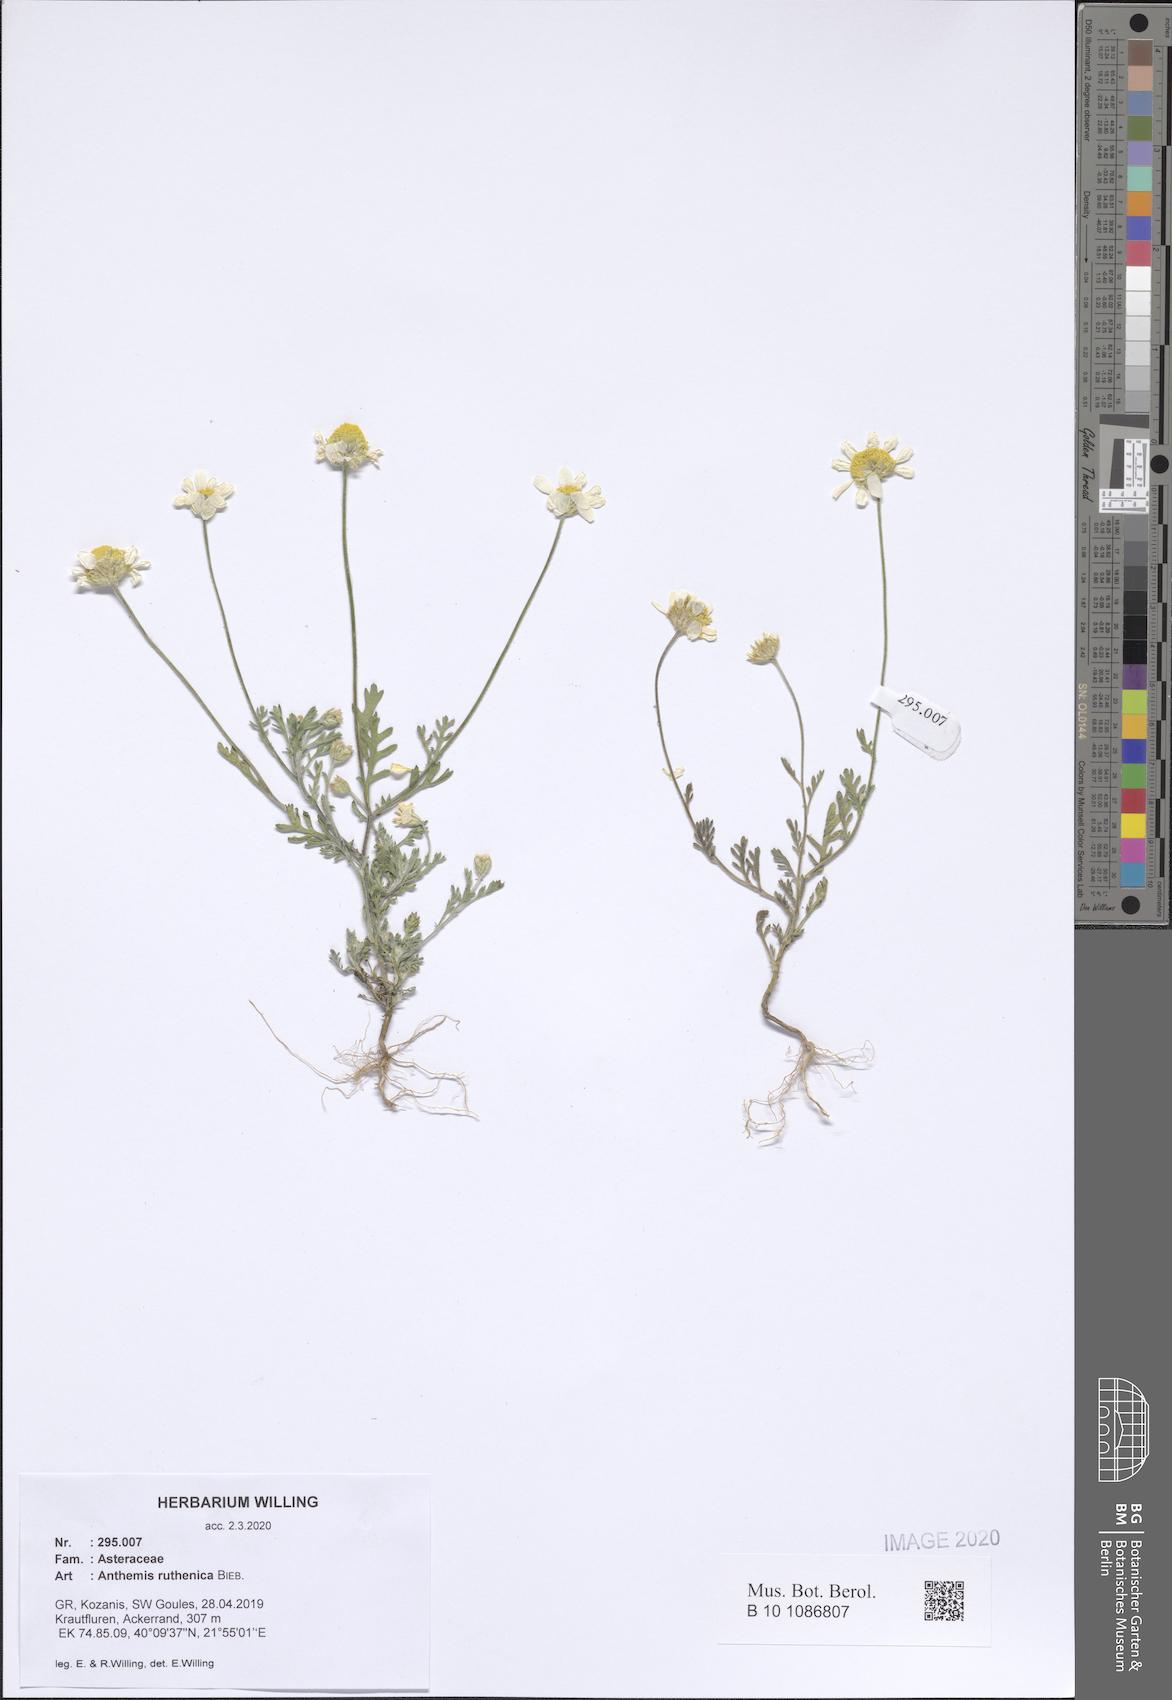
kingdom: Plantae
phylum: Tracheophyta
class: Magnoliopsida
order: Asterales
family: Asteraceae
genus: Anthemis
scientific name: Anthemis ruthenica
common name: Eastern chamomile
